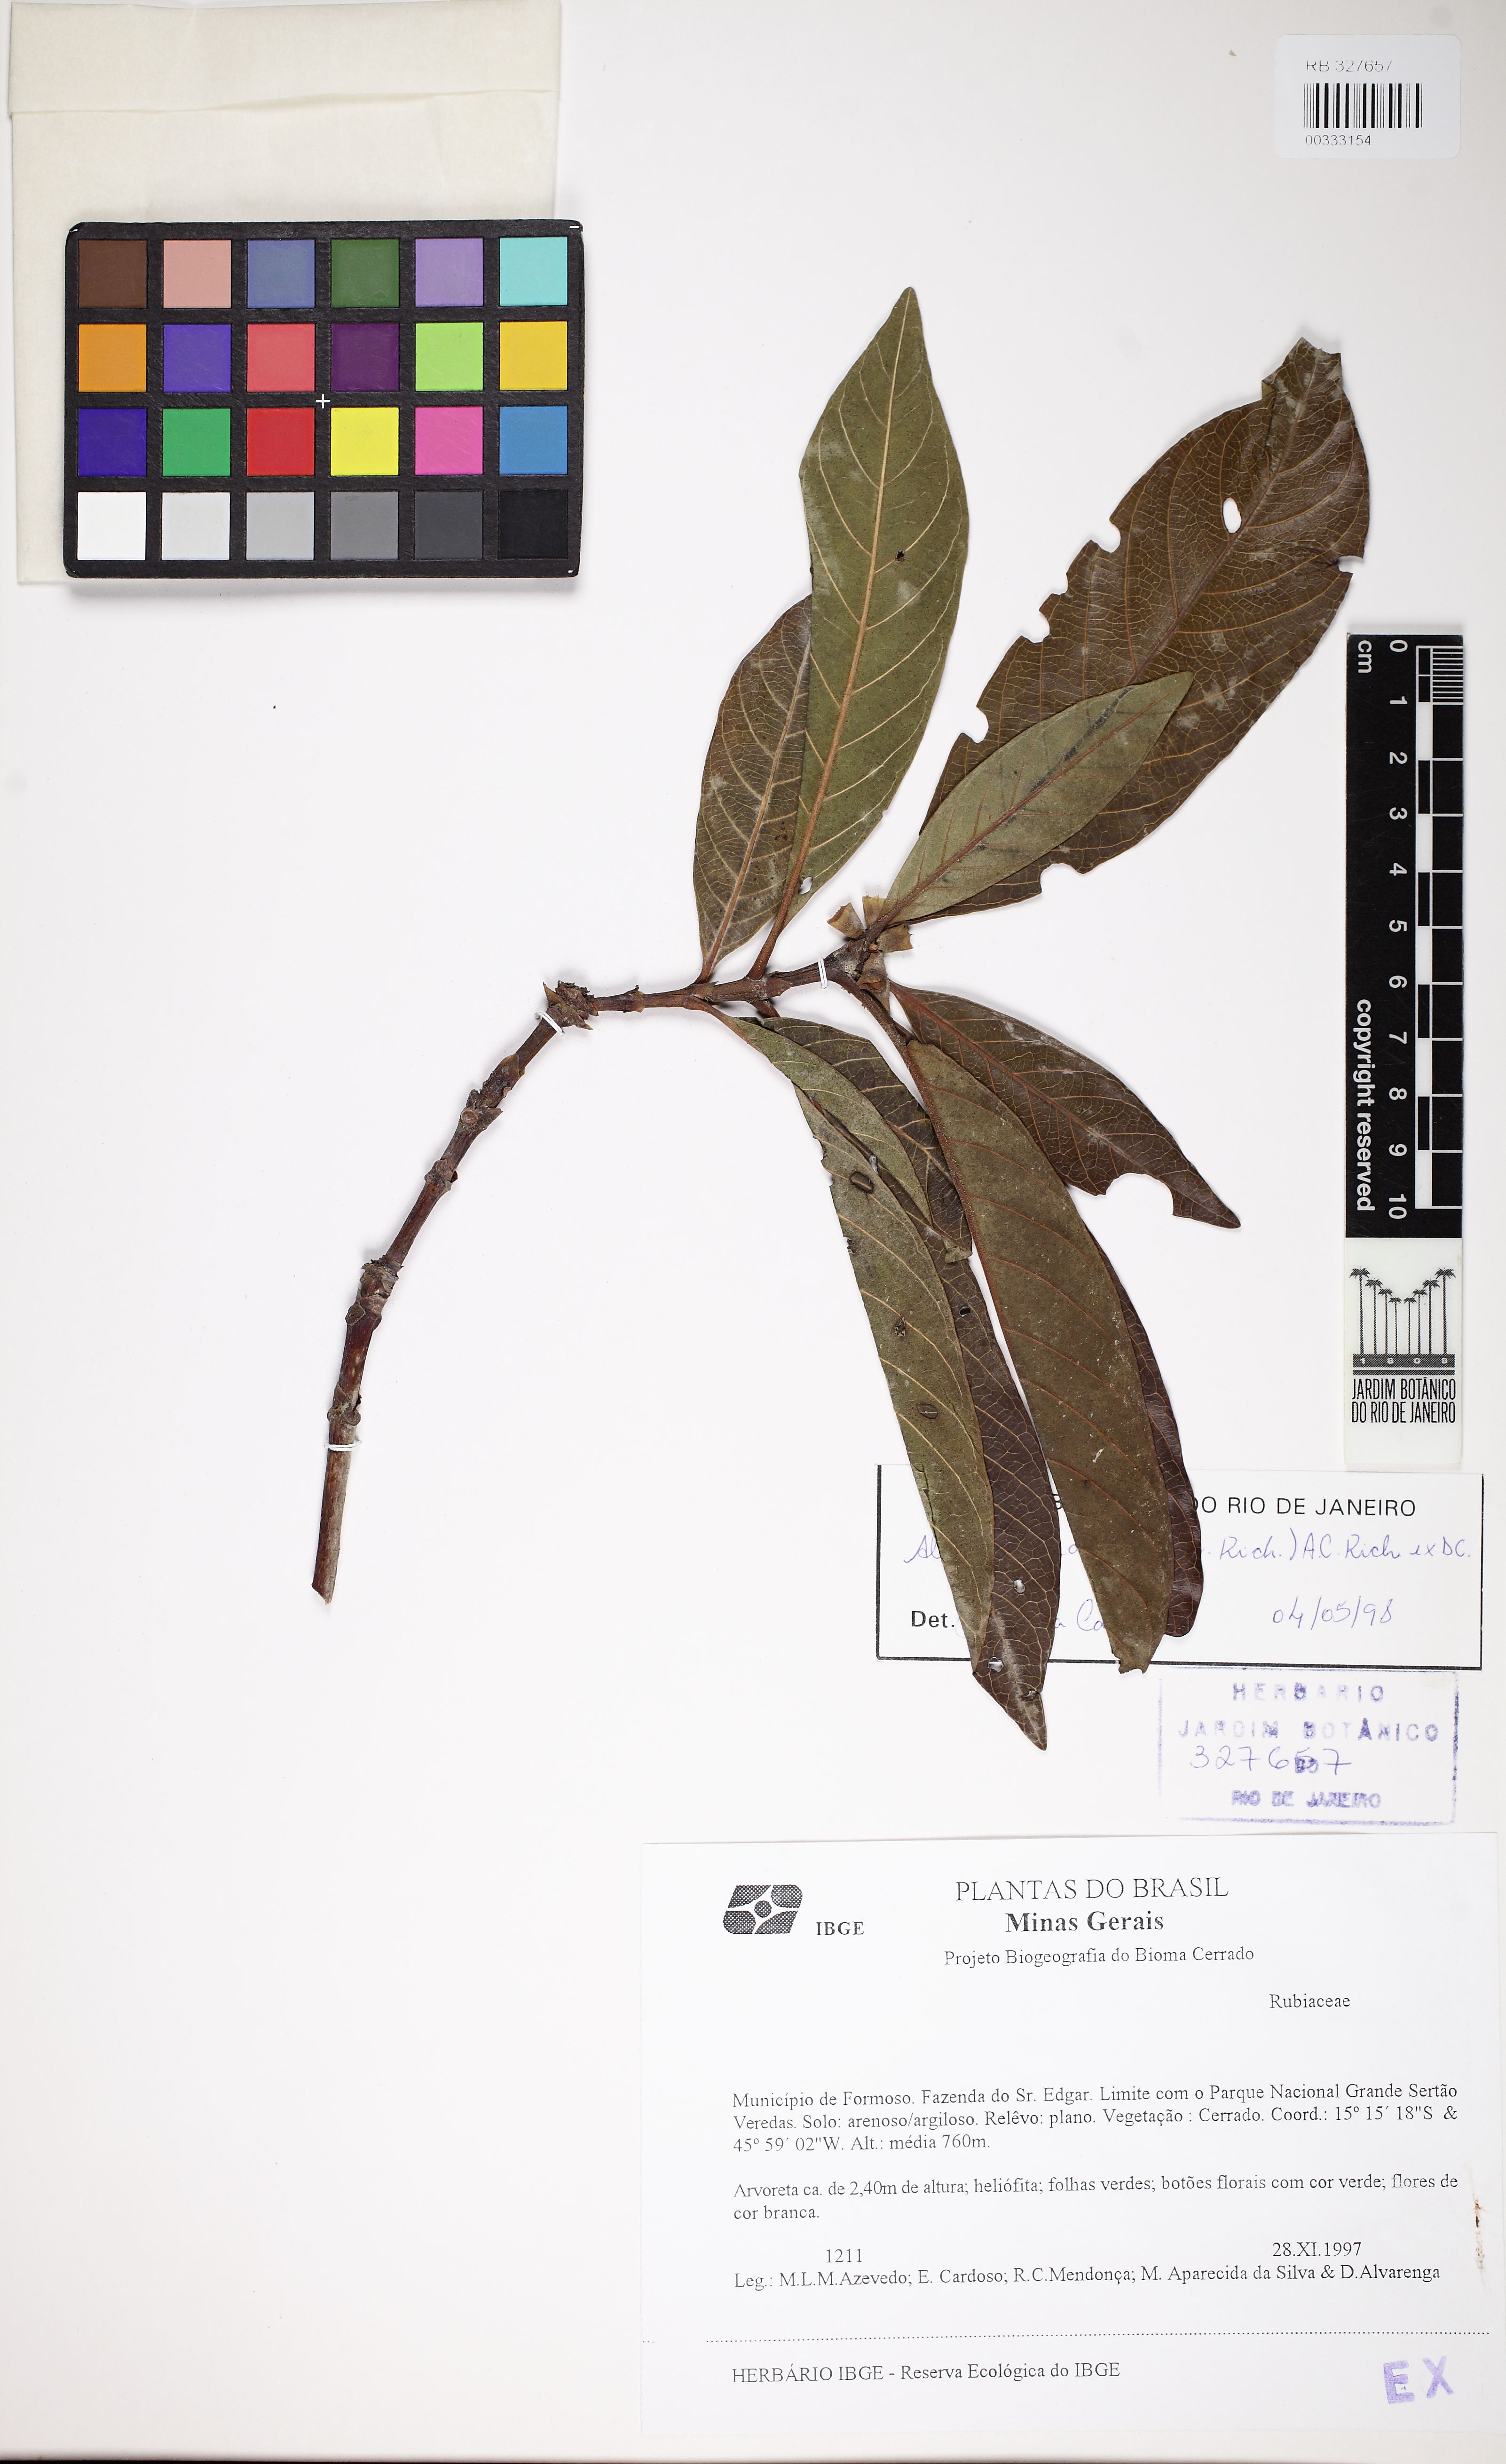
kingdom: Plantae
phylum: Tracheophyta
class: Magnoliopsida
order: Gentianales
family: Rubiaceae
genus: Alibertia
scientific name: Alibertia edulis
